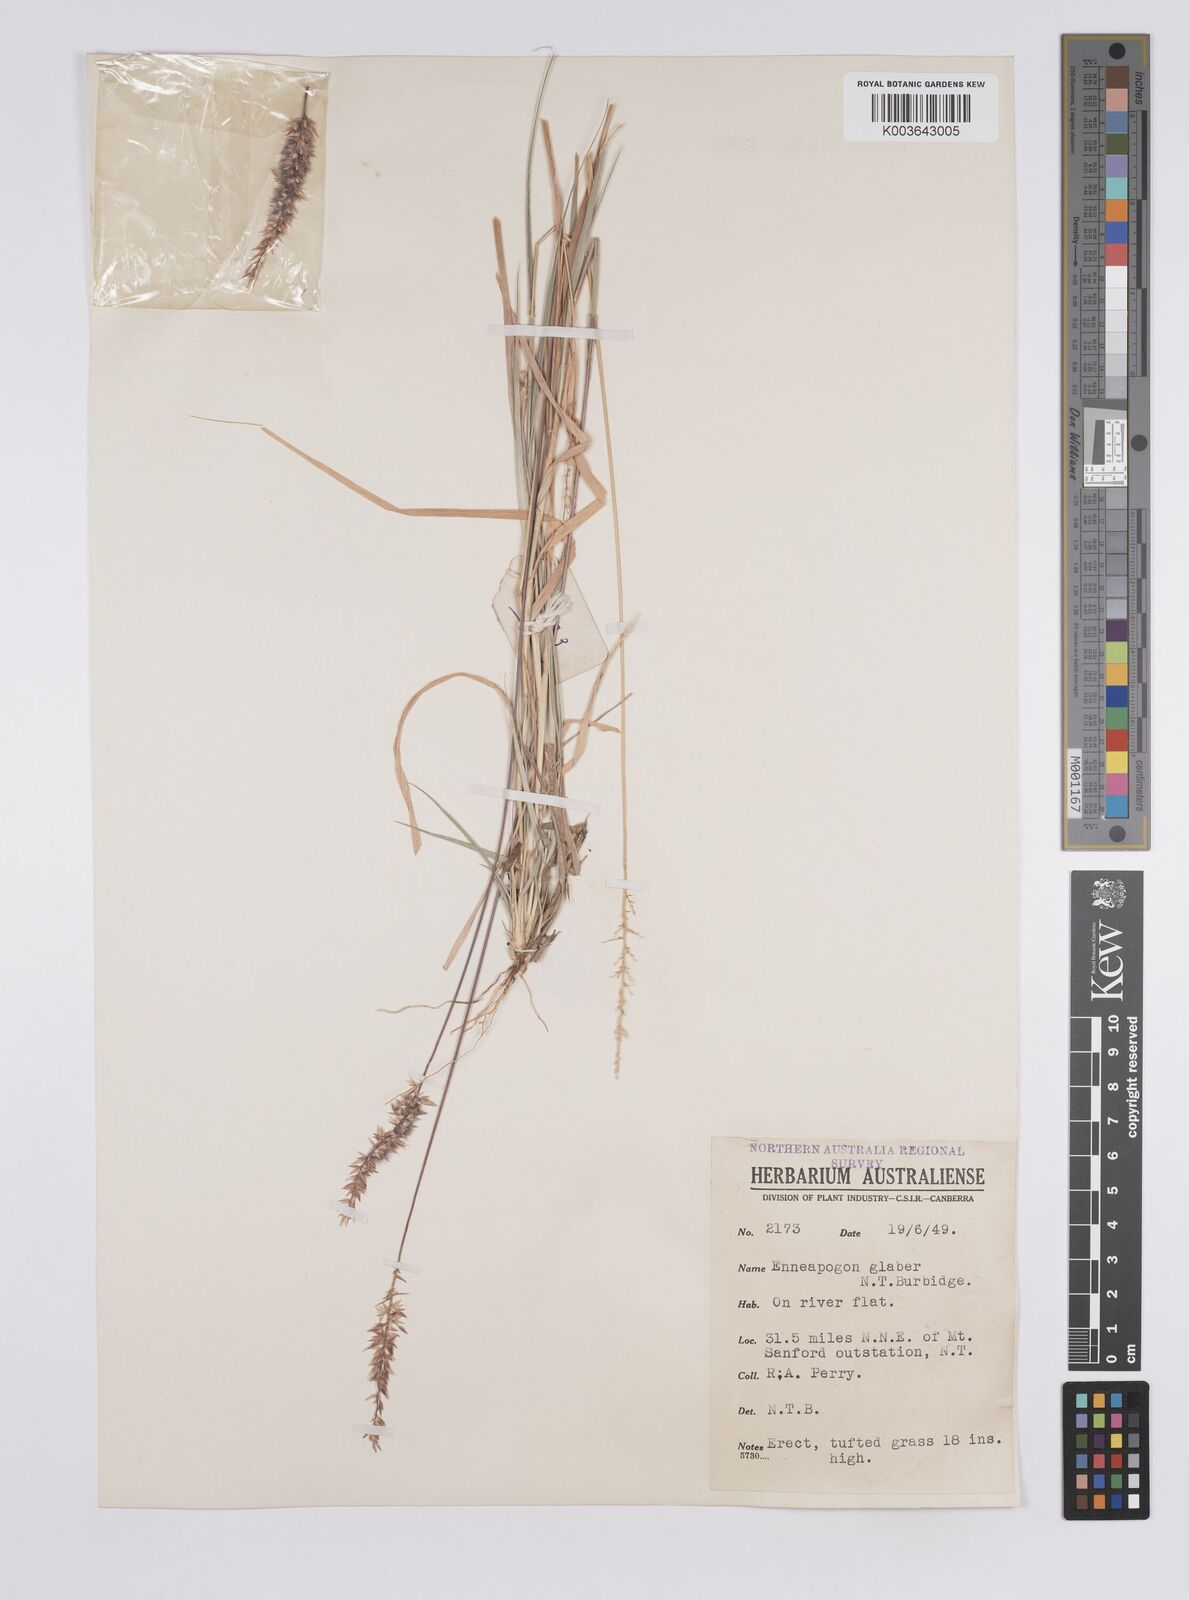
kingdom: Plantae
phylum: Tracheophyta
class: Liliopsida
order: Poales
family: Poaceae
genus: Enneapogon
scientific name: Enneapogon purpurascens
